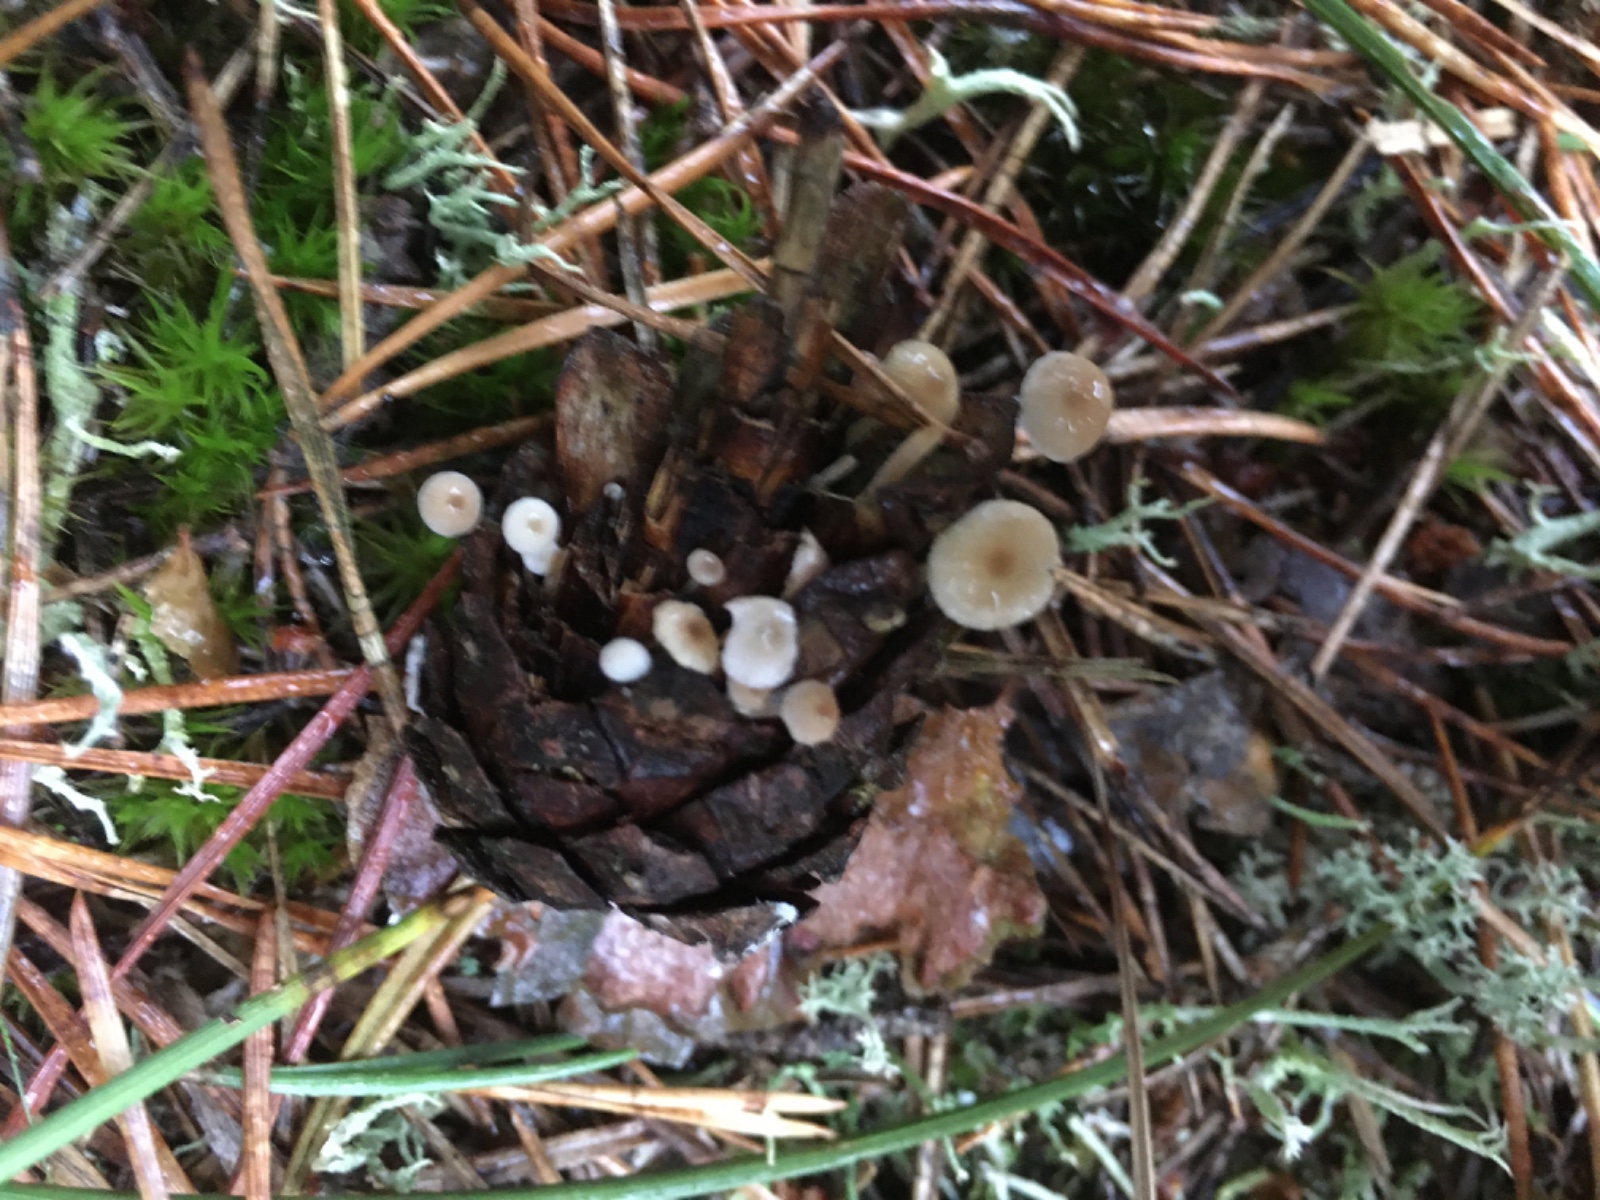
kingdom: Fungi
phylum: Basidiomycota
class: Agaricomycetes
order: Agaricales
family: Marasmiaceae
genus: Baeospora
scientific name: Baeospora myosura
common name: koglebruskhat
